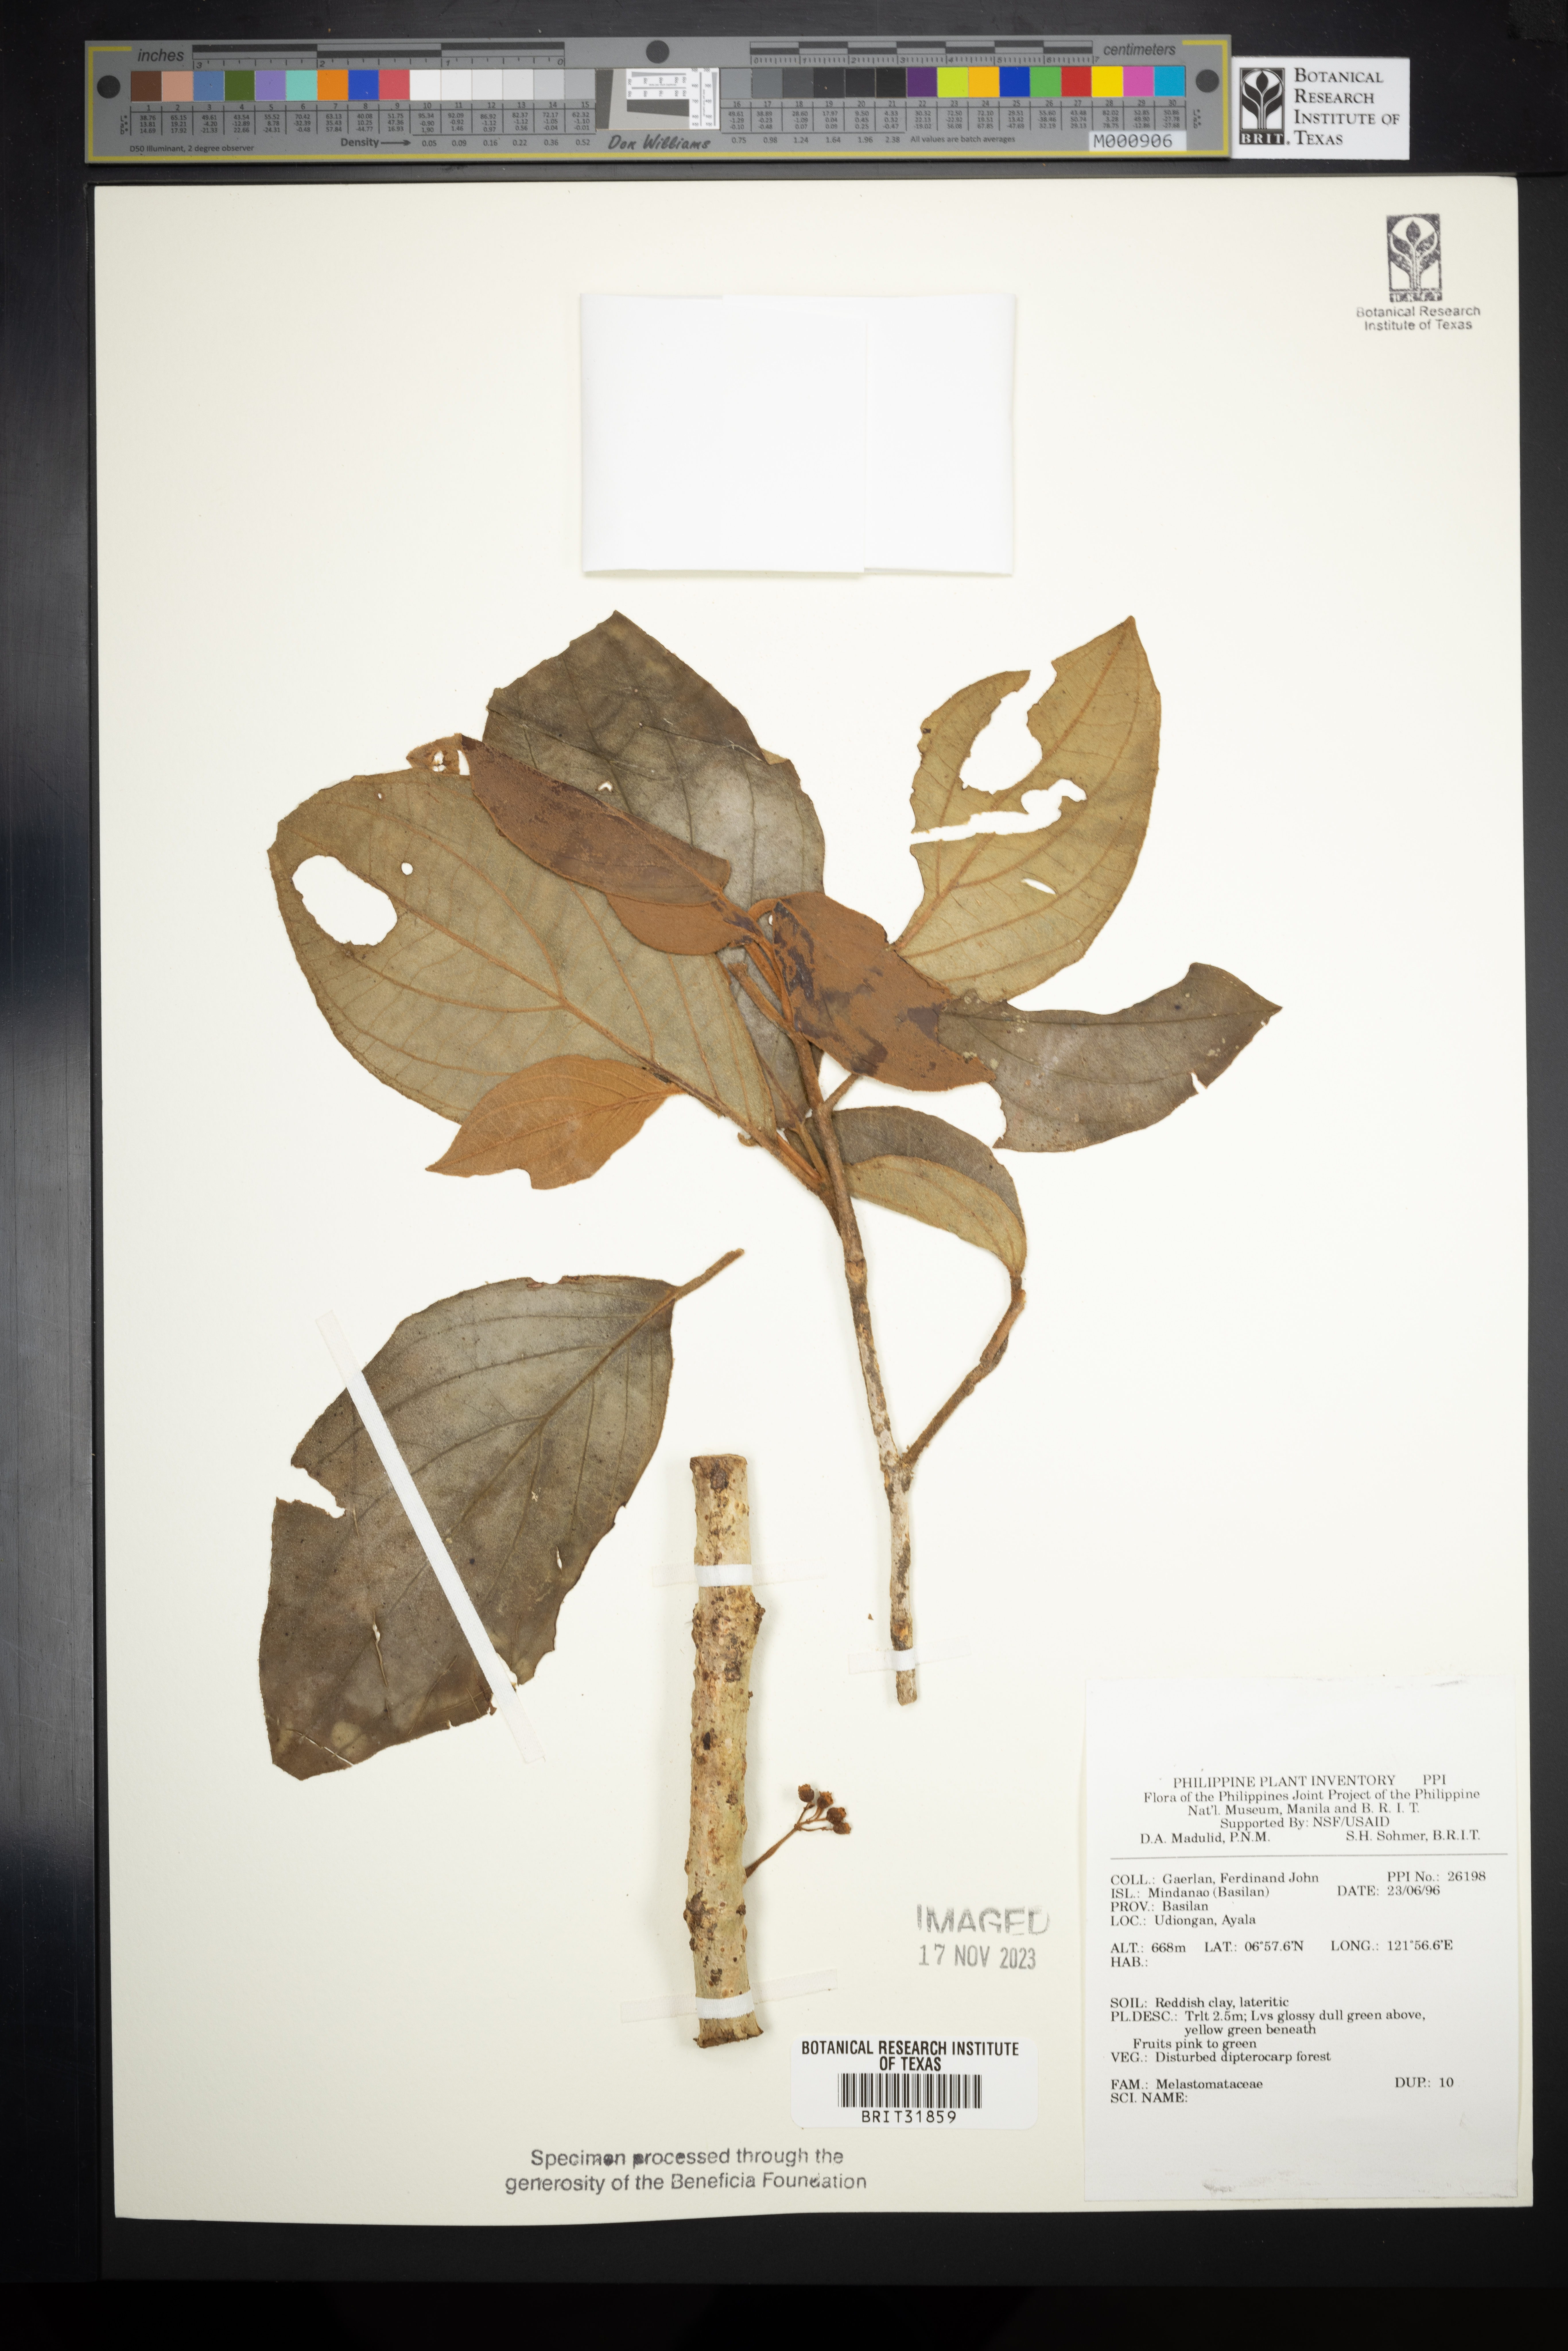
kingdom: Plantae
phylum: Tracheophyta
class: Magnoliopsida
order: Myrtales
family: Melastomataceae
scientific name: Melastomataceae
